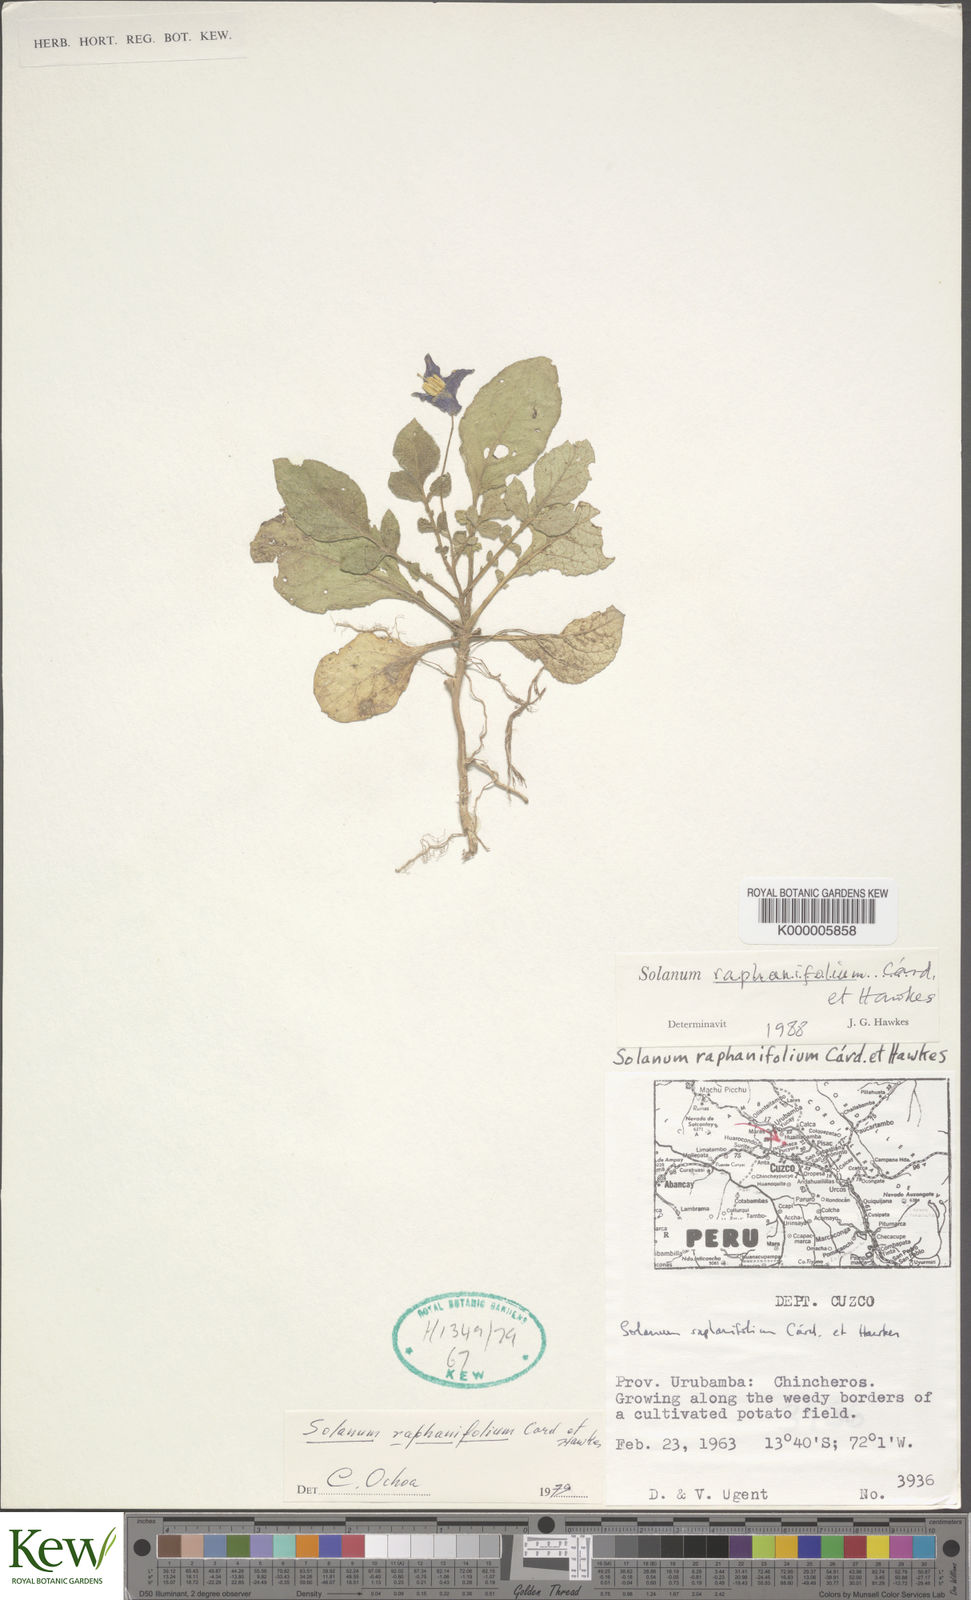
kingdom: Plantae
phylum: Tracheophyta
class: Magnoliopsida
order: Solanales
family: Solanaceae
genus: Solanum
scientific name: Solanum raphanifolium
